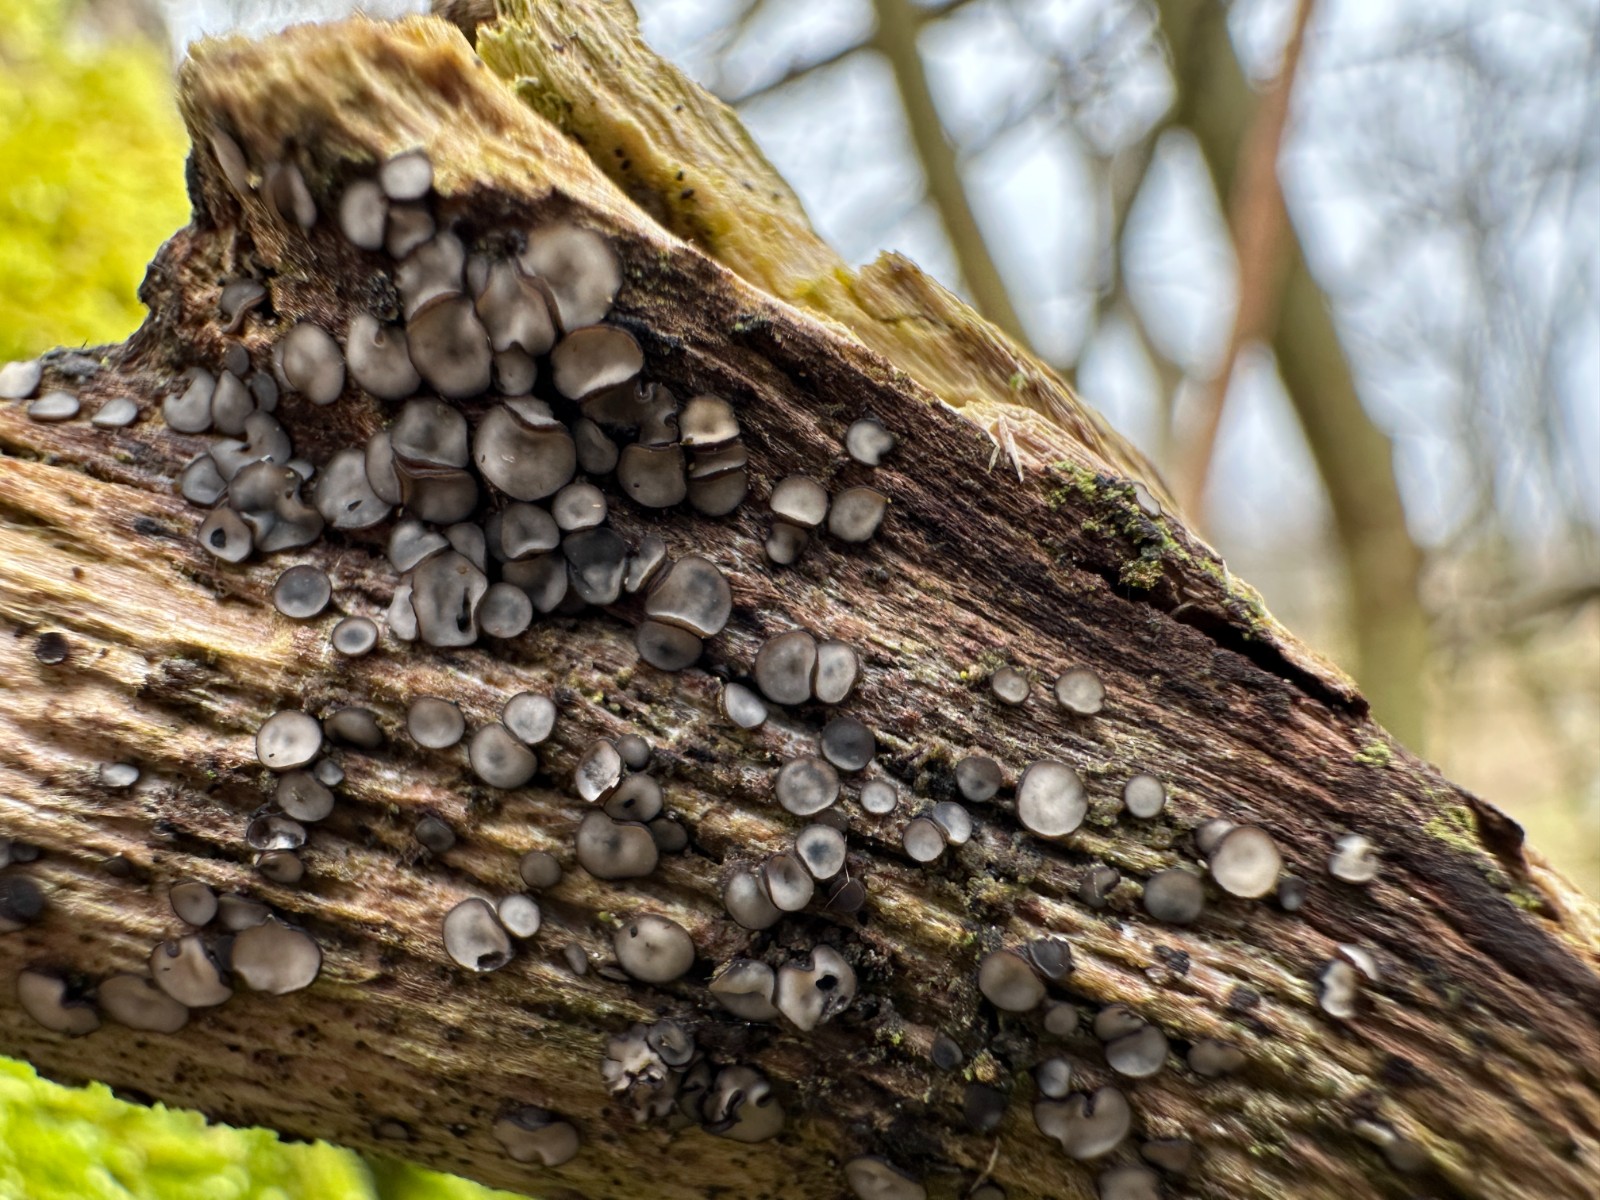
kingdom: Fungi
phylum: Ascomycota
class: Leotiomycetes
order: Helotiales
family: Mollisiaceae
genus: Mollisia
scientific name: Mollisia
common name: gråskive
